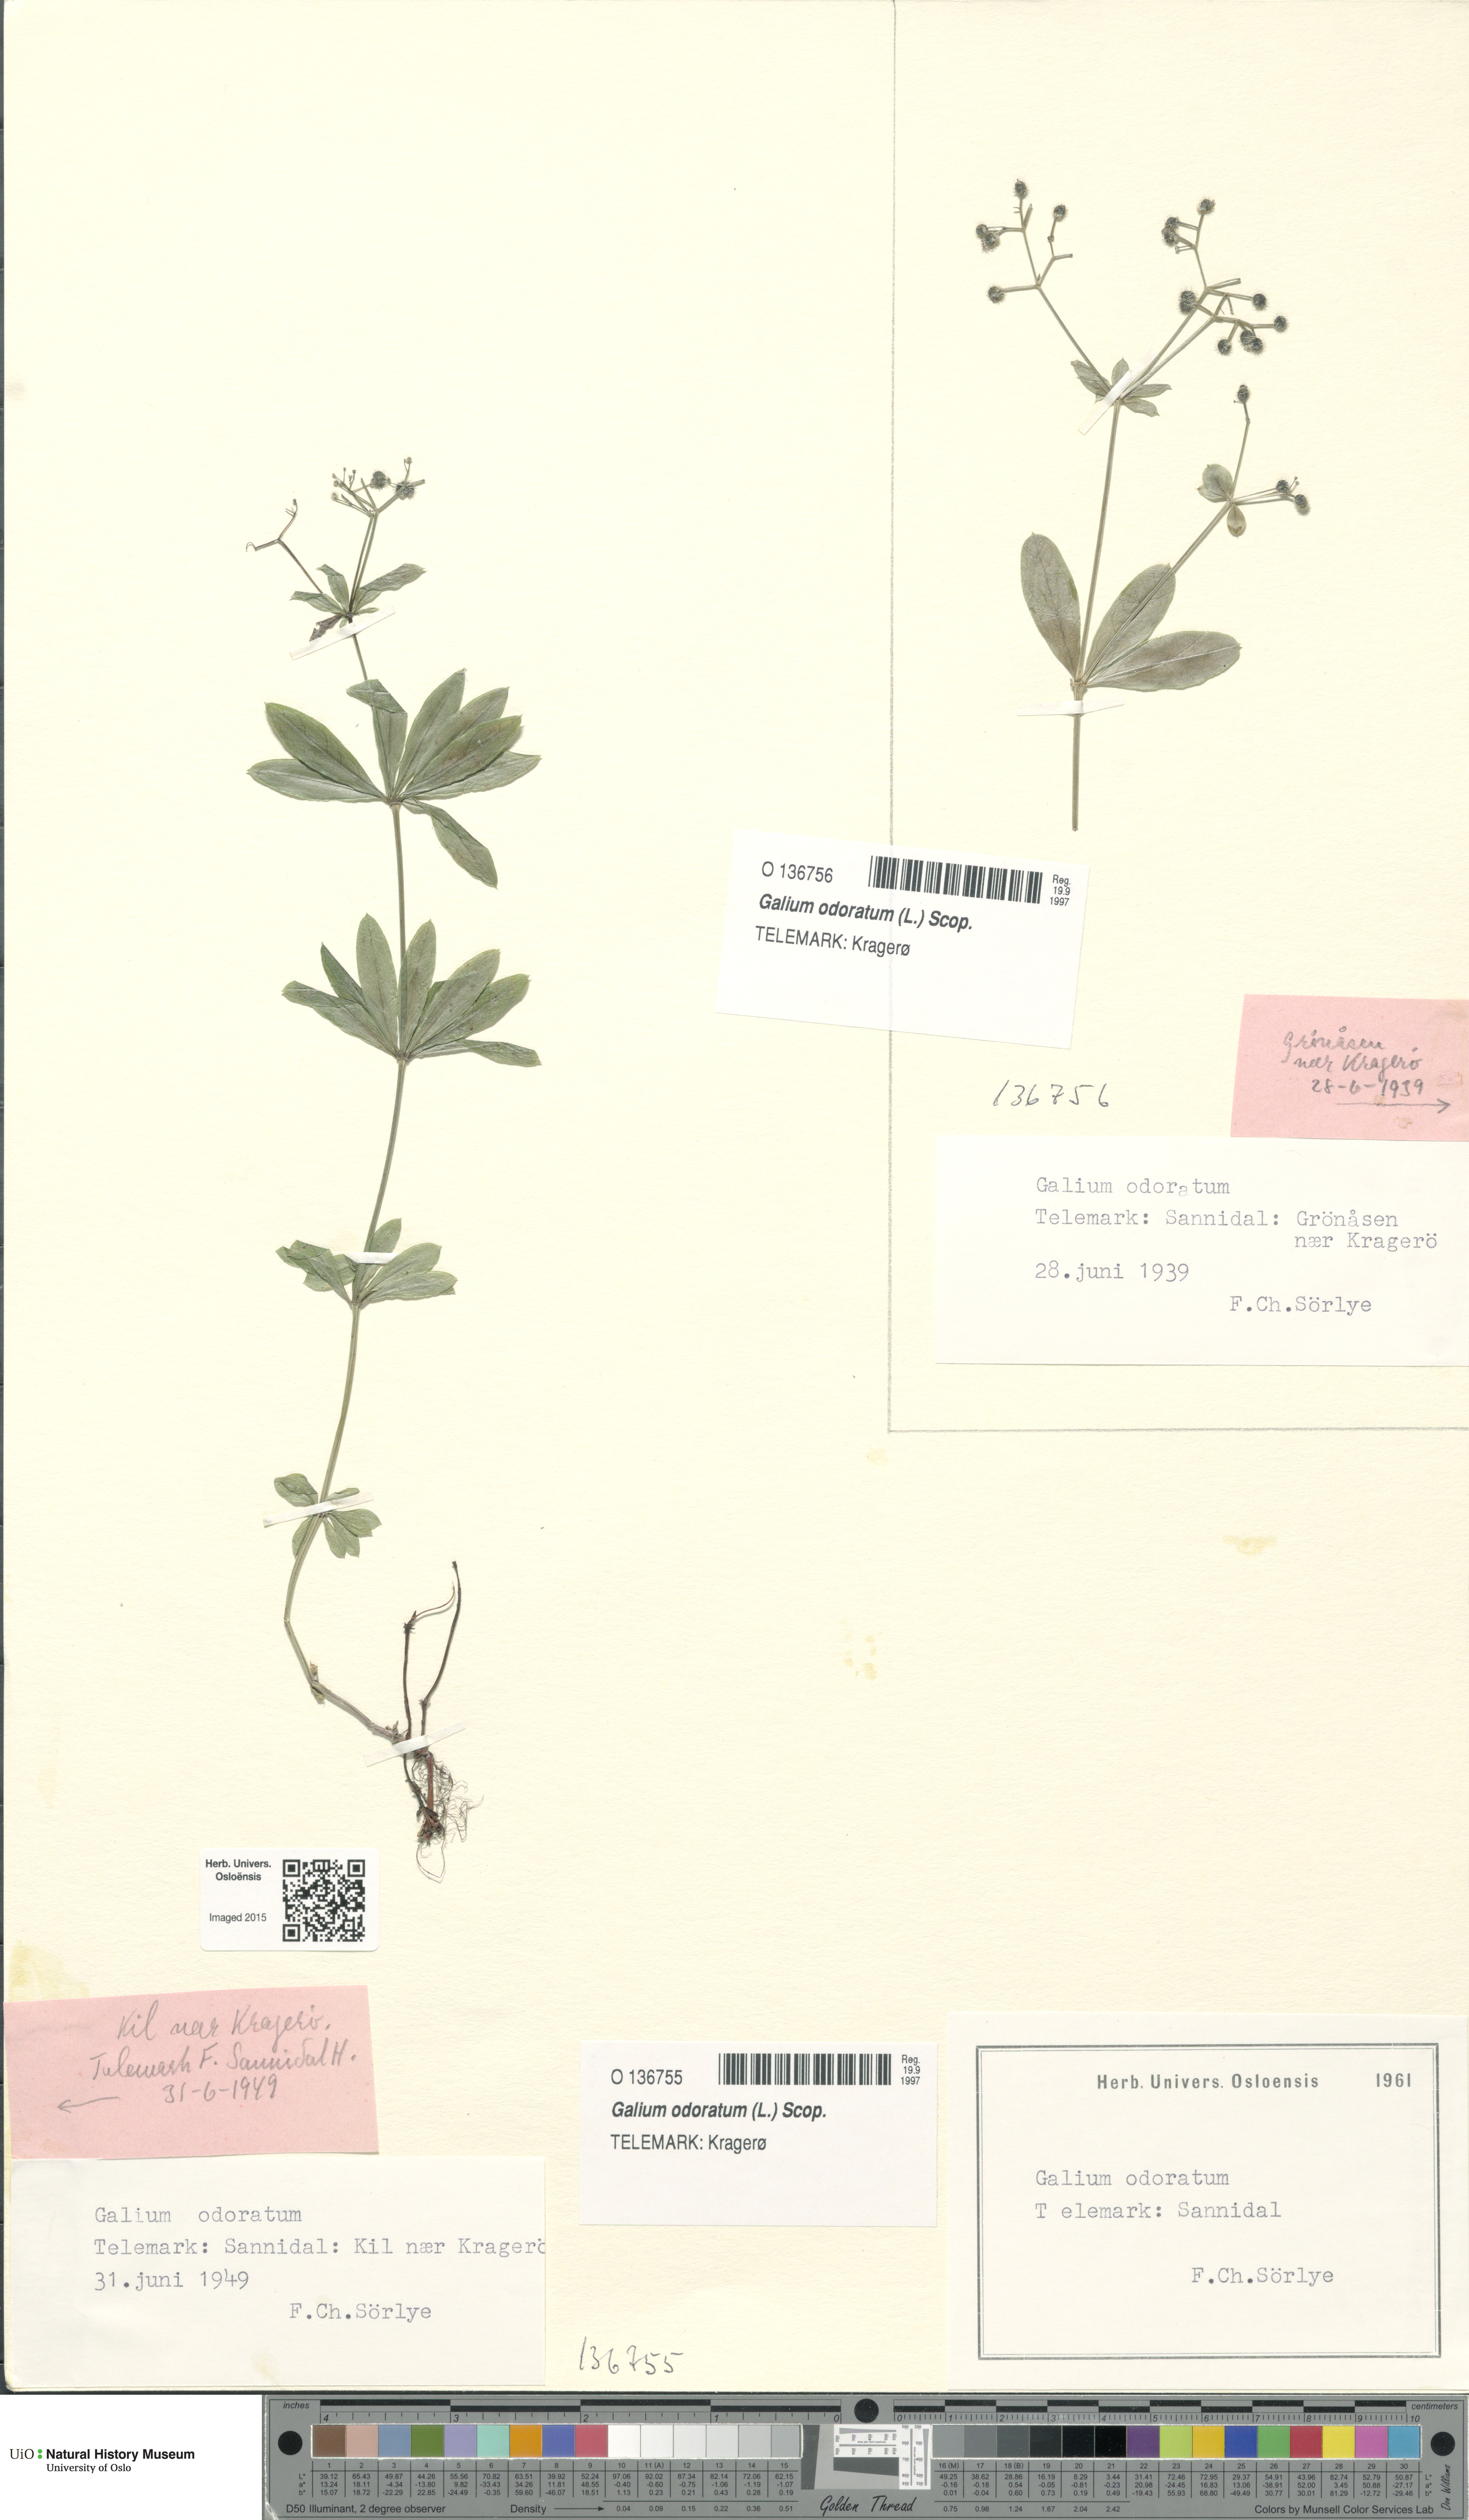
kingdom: Plantae
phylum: Tracheophyta
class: Magnoliopsida
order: Gentianales
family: Rubiaceae
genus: Galium
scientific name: Galium odoratum
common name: Sweet woodruff
